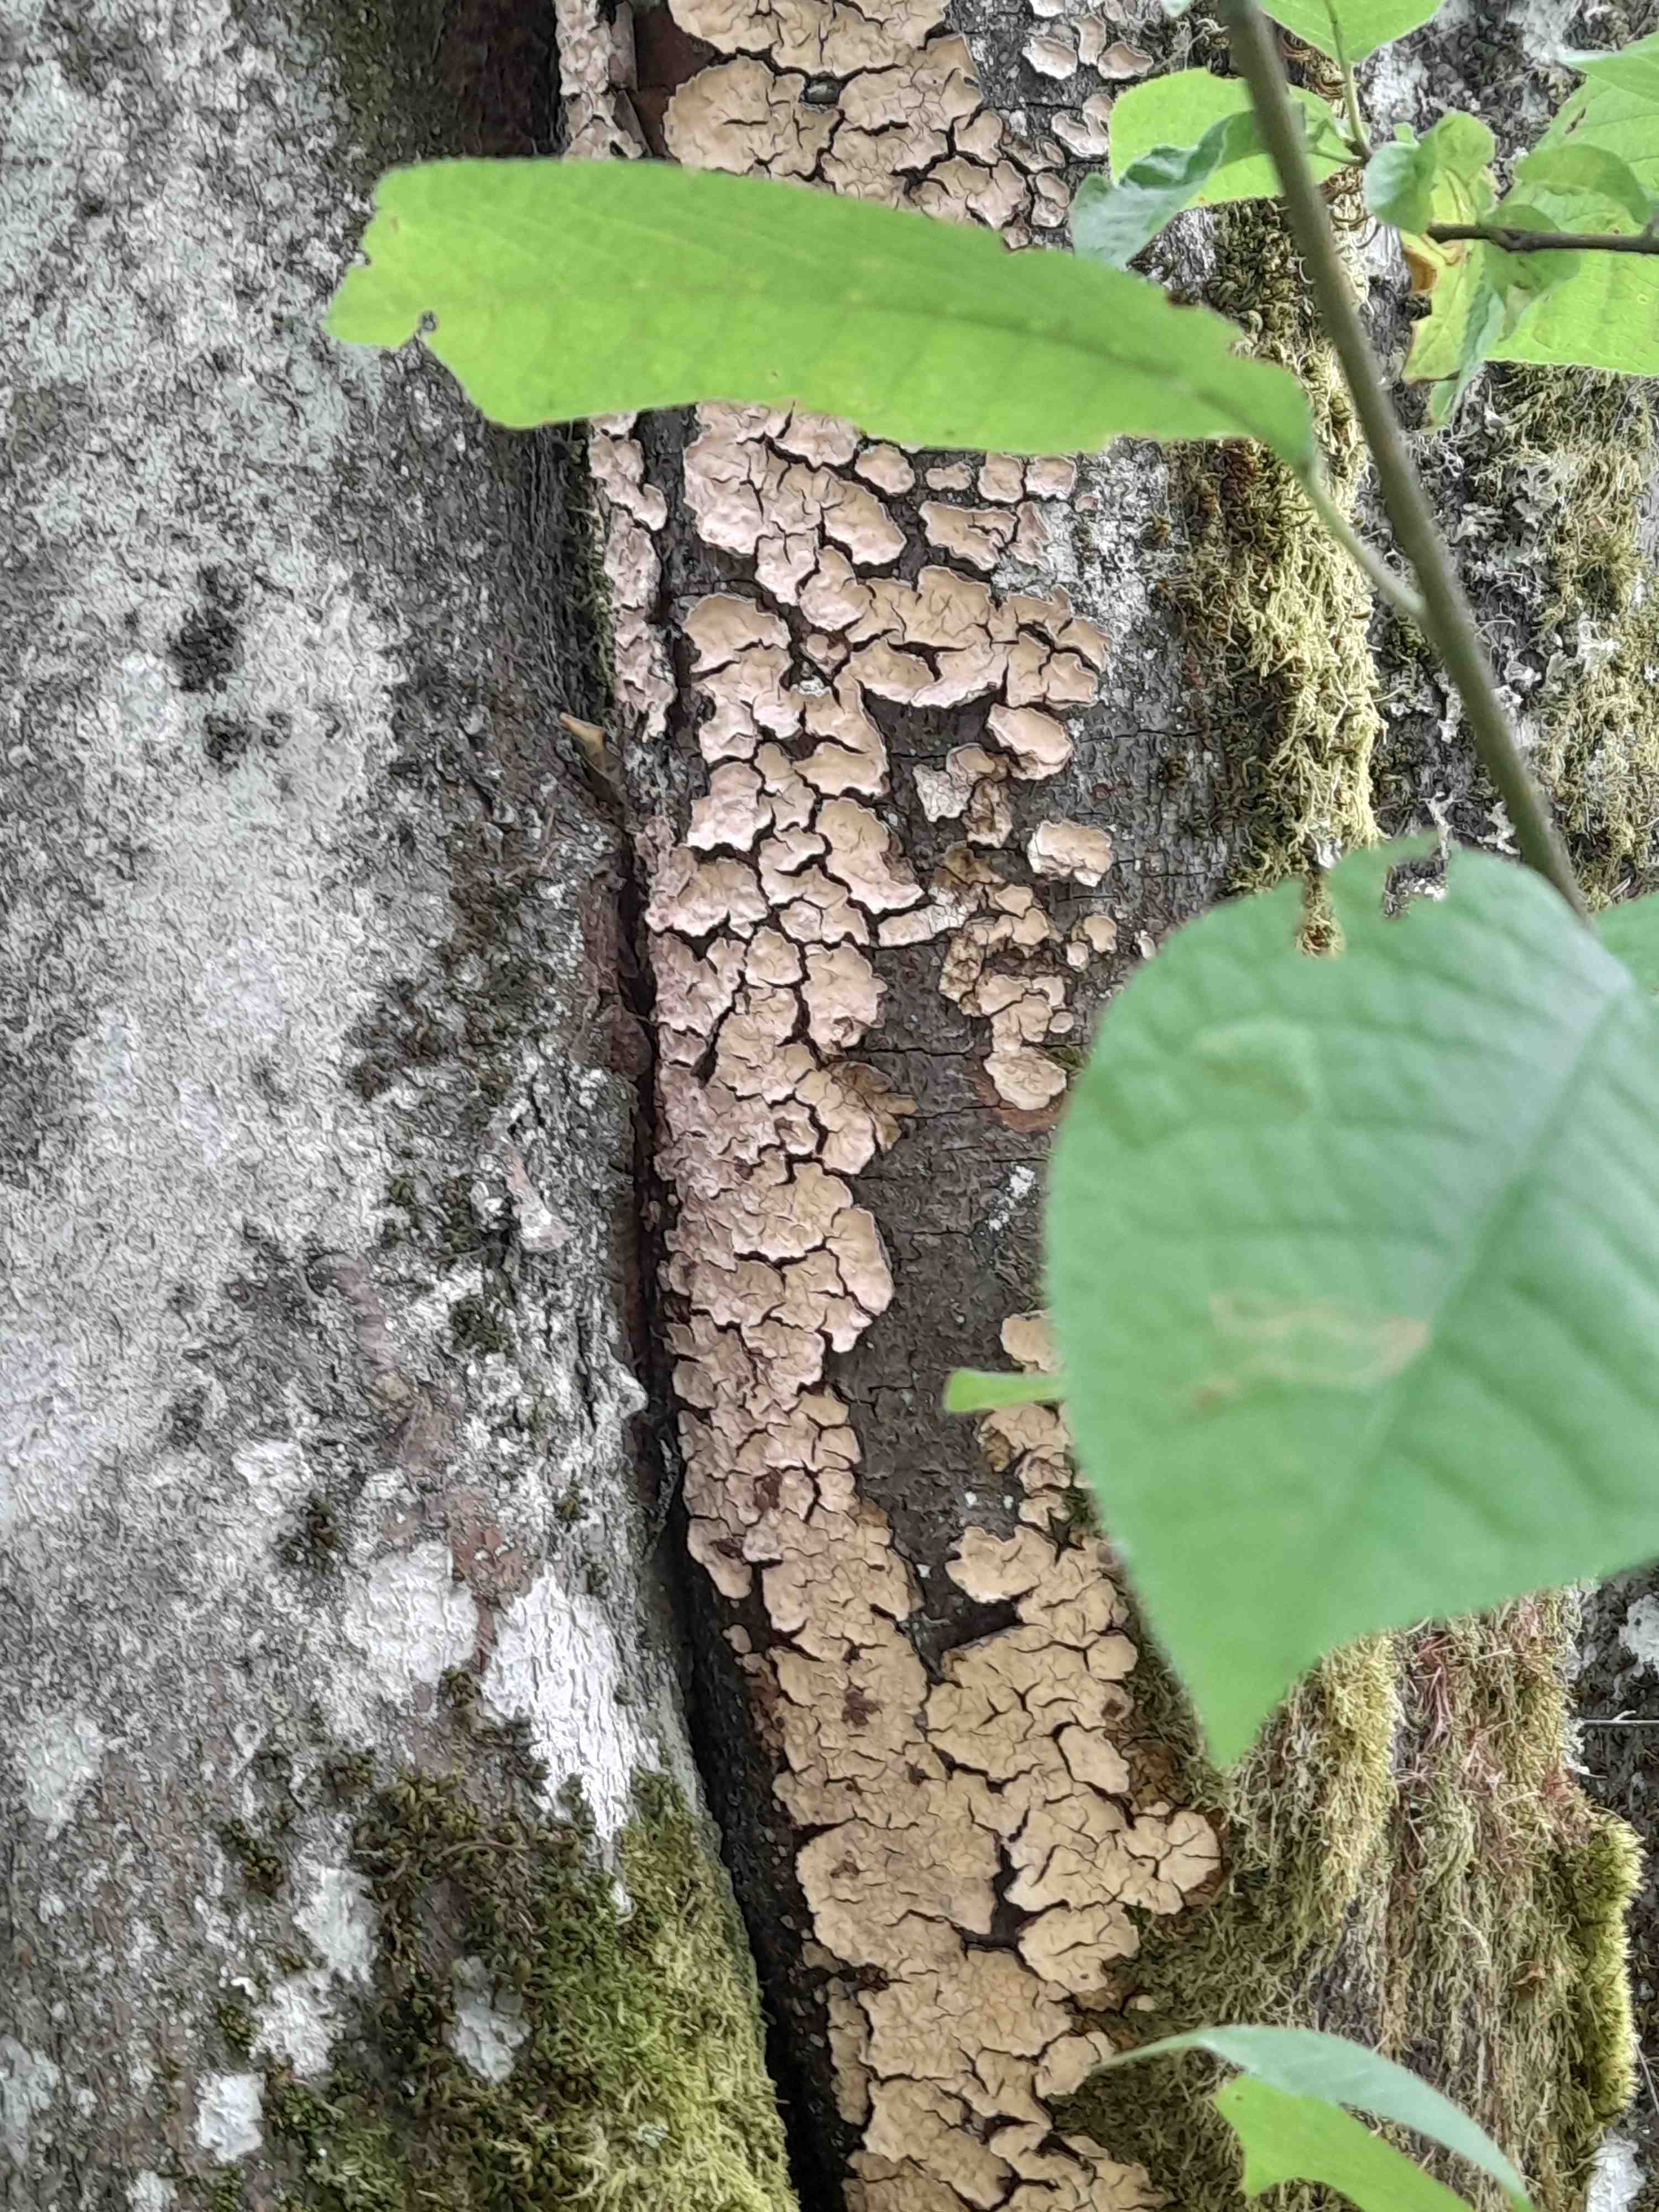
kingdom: Fungi
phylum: Basidiomycota
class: Agaricomycetes
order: Russulales
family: Stereaceae
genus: Stereum
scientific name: Stereum rugosum
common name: rynket lædersvamp
